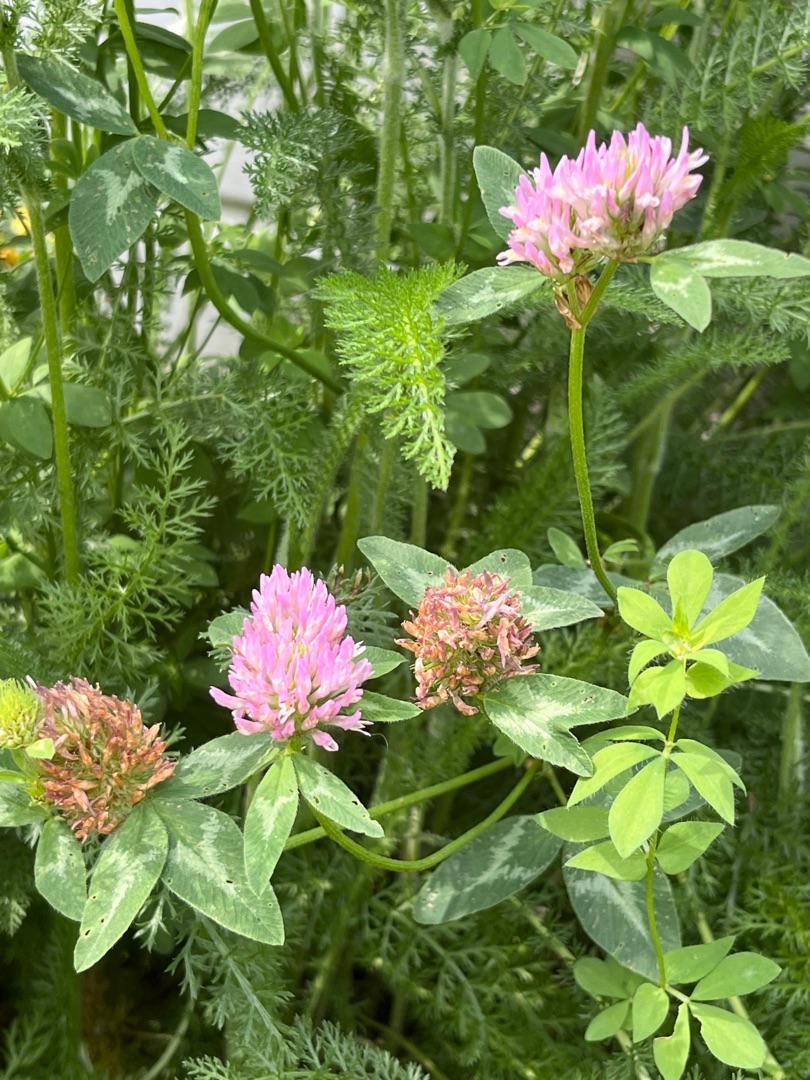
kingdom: Plantae
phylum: Tracheophyta
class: Magnoliopsida
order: Fabales
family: Fabaceae
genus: Trifolium
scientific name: Trifolium pratense
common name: Rød-kløver
